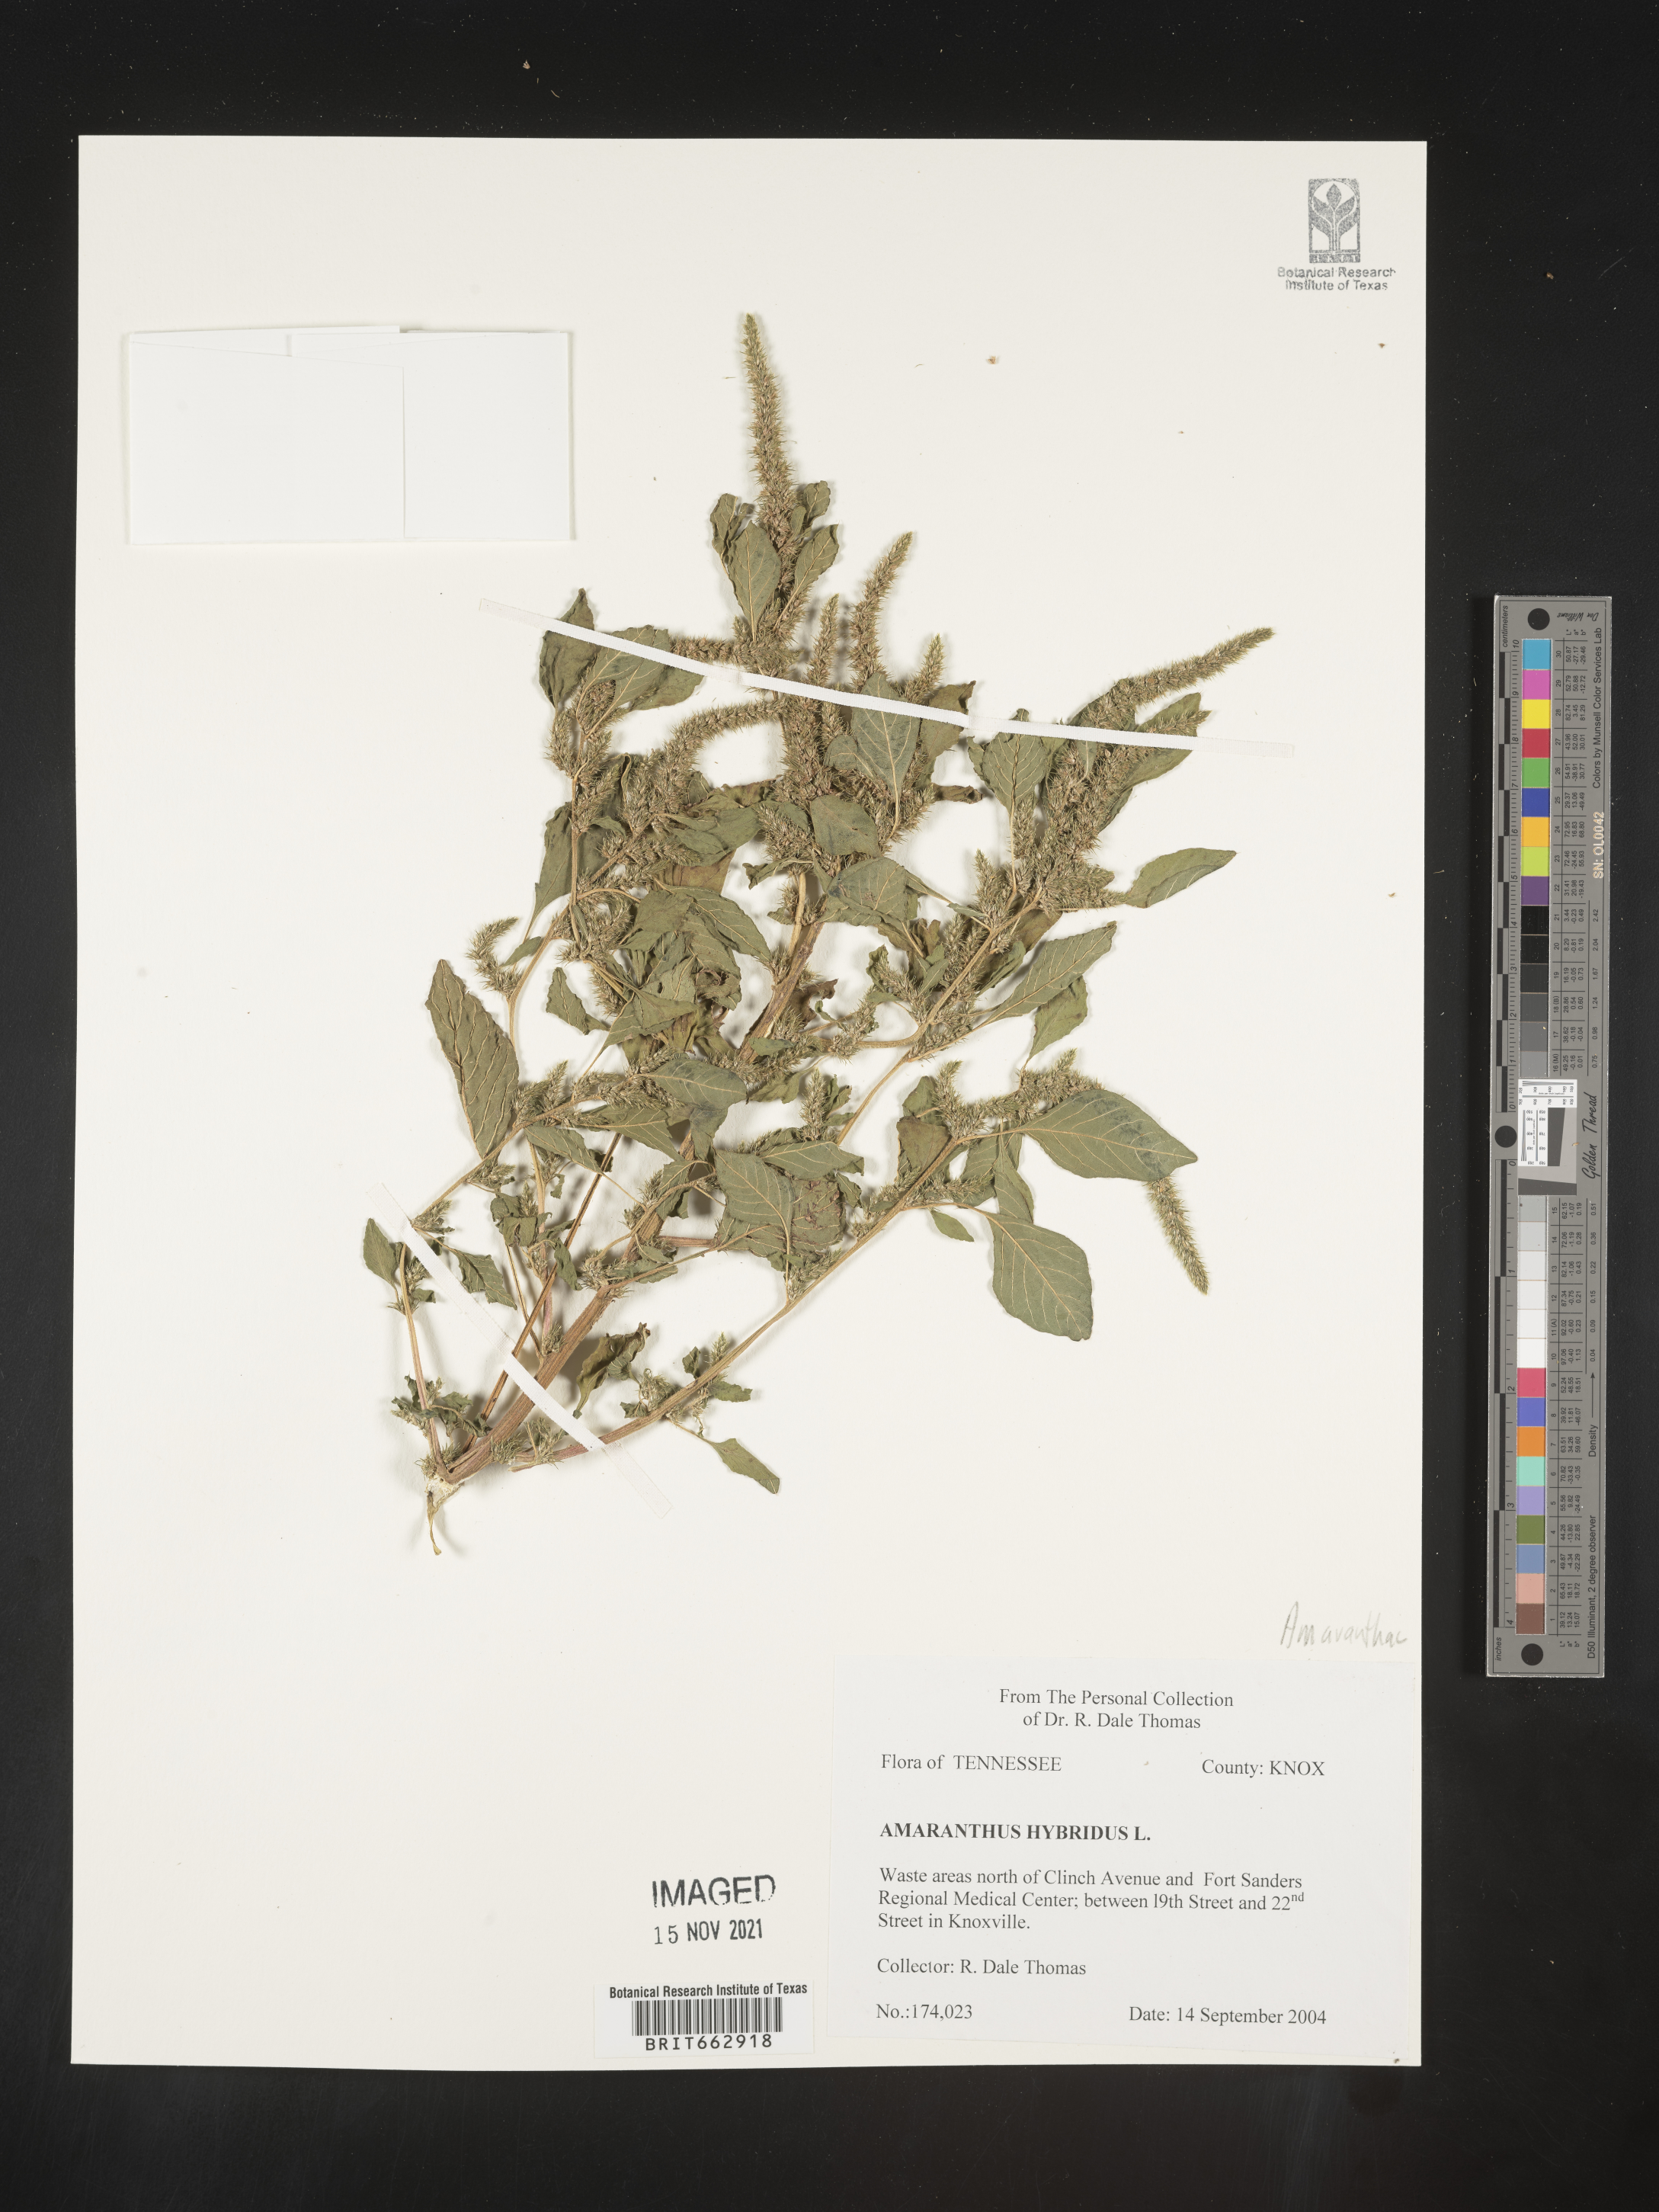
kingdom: Plantae
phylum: Tracheophyta
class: Magnoliopsida
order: Caryophyllales
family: Amaranthaceae
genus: Amaranthus
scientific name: Amaranthus hybridus
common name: Green amaranth
